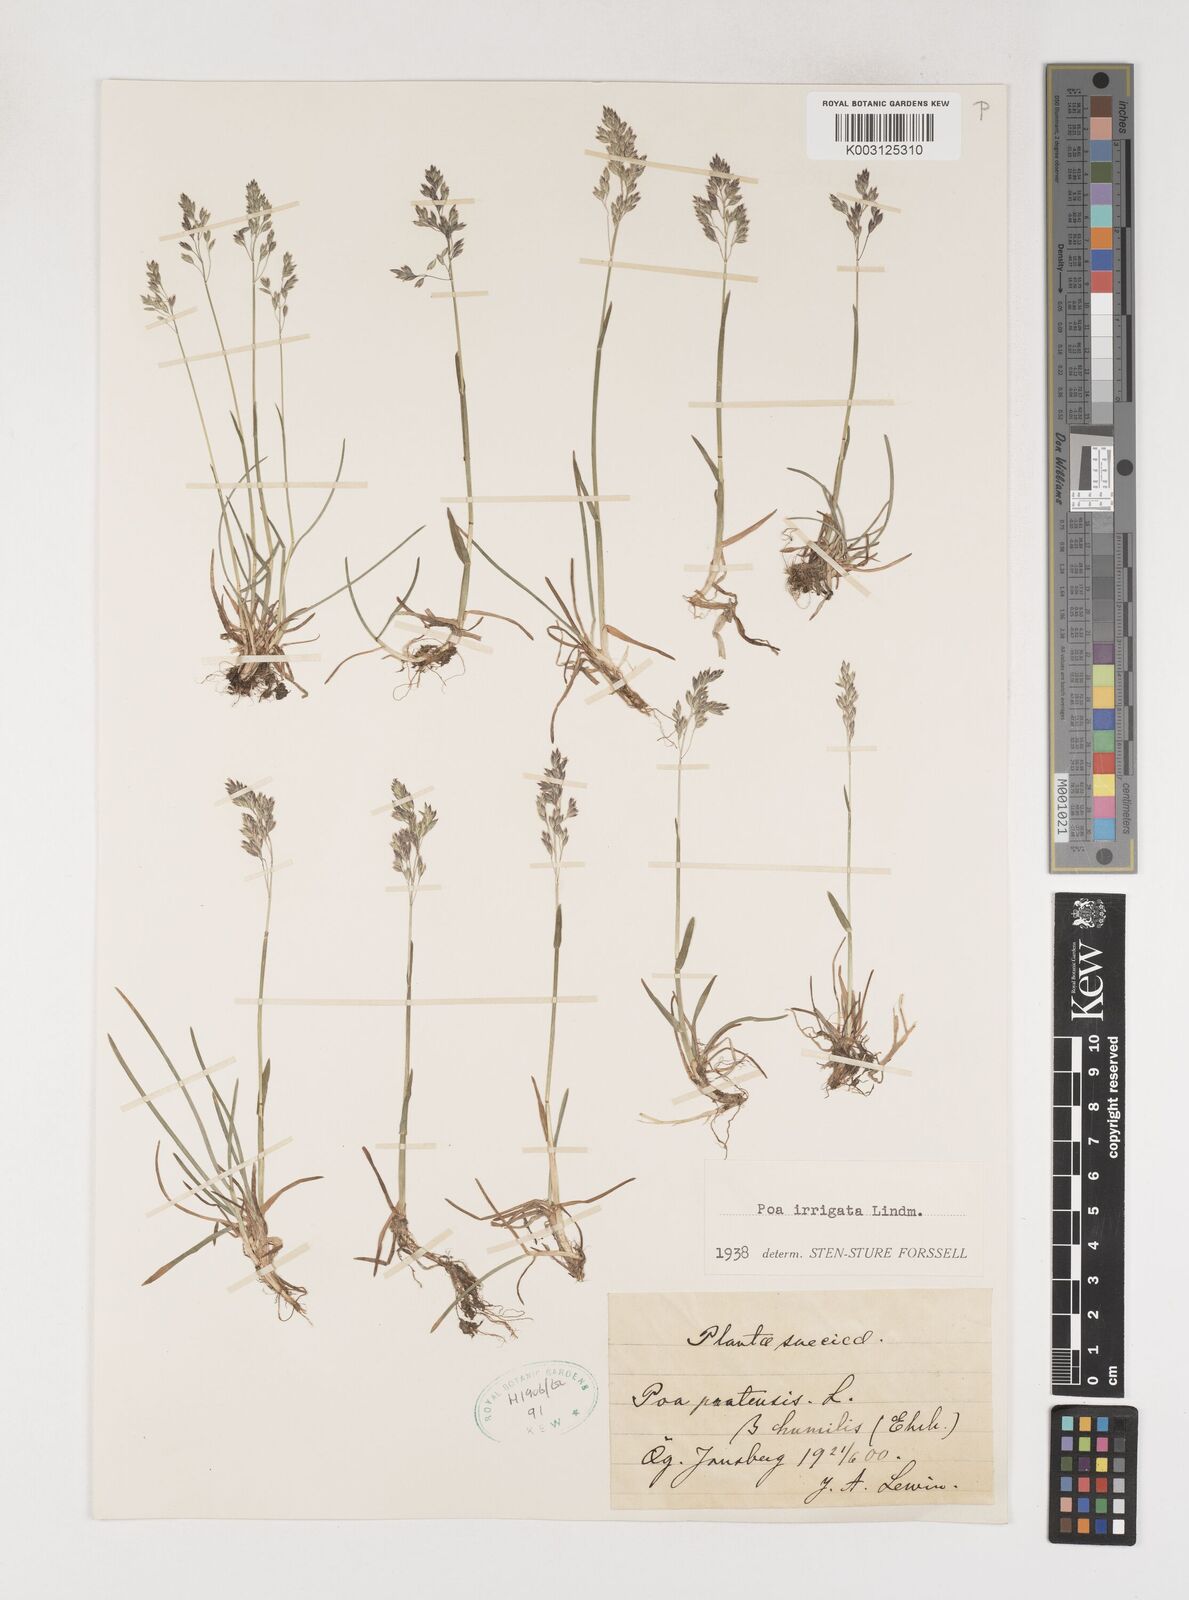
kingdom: Plantae
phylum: Tracheophyta
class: Liliopsida
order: Poales
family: Poaceae
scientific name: Poaceae
